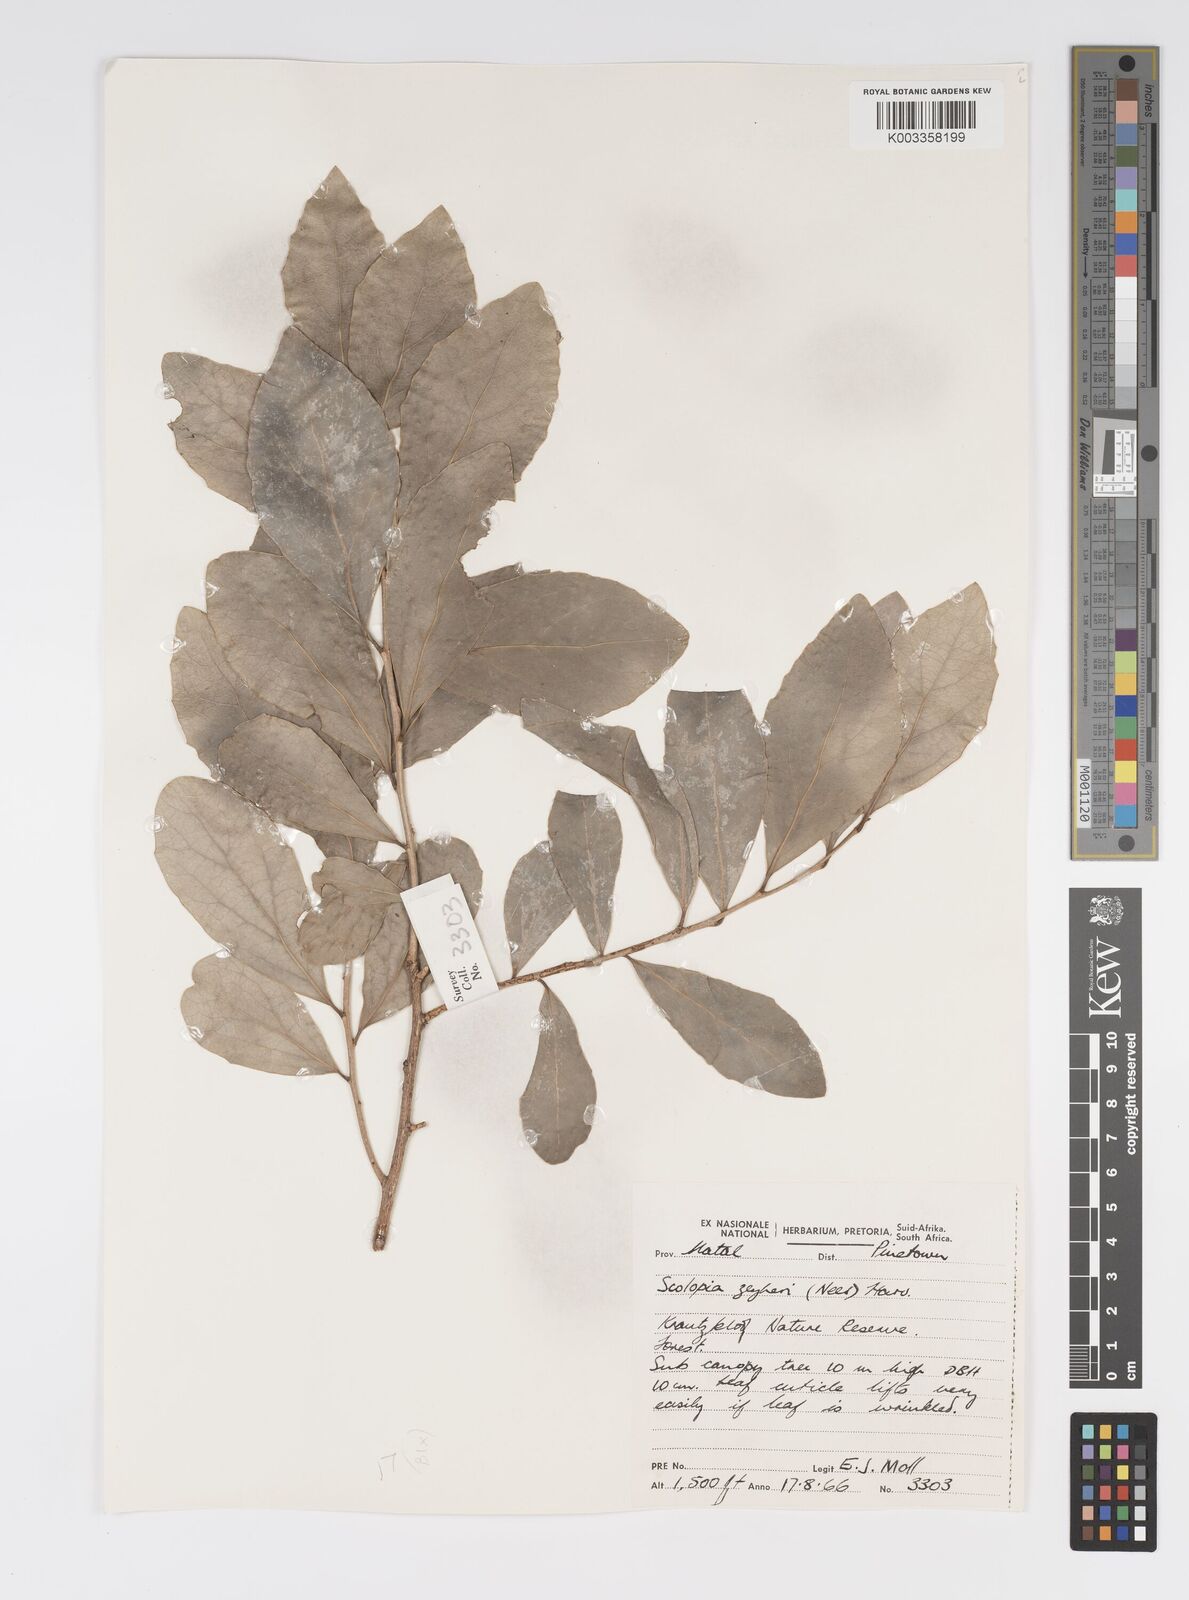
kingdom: Plantae
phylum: Tracheophyta
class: Magnoliopsida
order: Malpighiales
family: Salicaceae
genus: Scolopia
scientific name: Scolopia zeyheri
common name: Thorn pear
